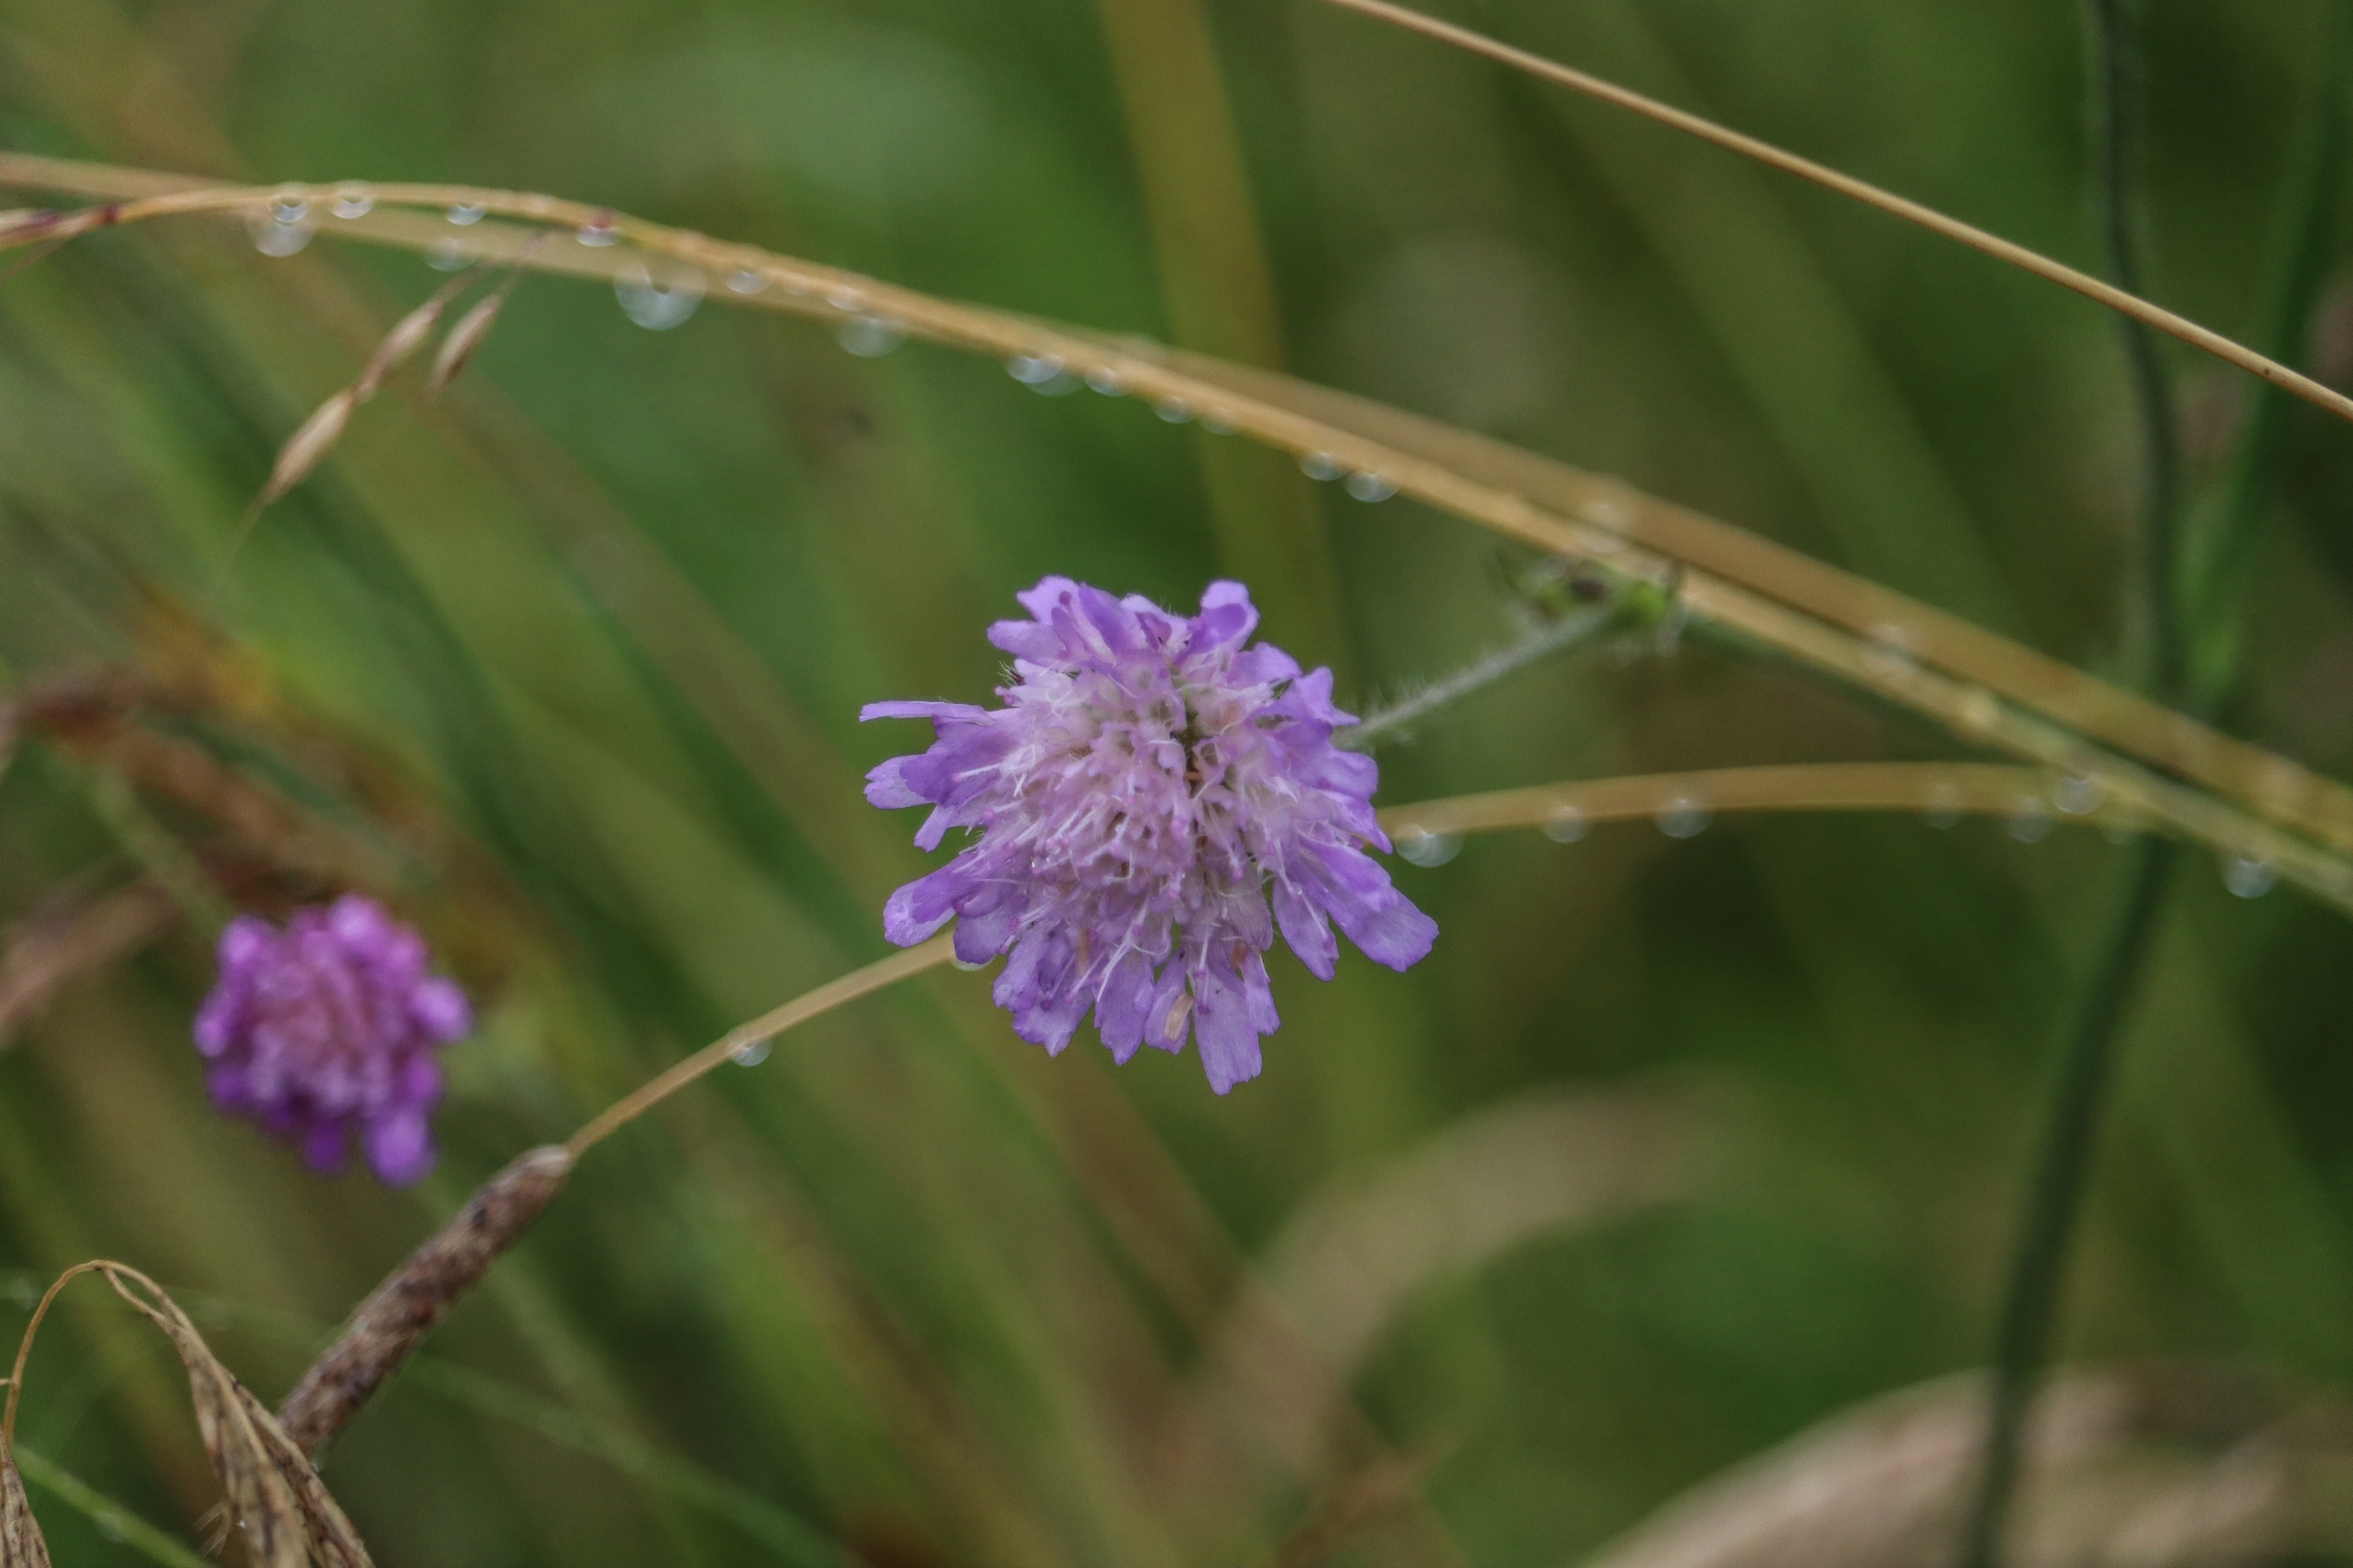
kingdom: Plantae
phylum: Tracheophyta
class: Magnoliopsida
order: Dipsacales
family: Caprifoliaceae
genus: Knautia
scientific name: Knautia arvensis
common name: Blåhat
